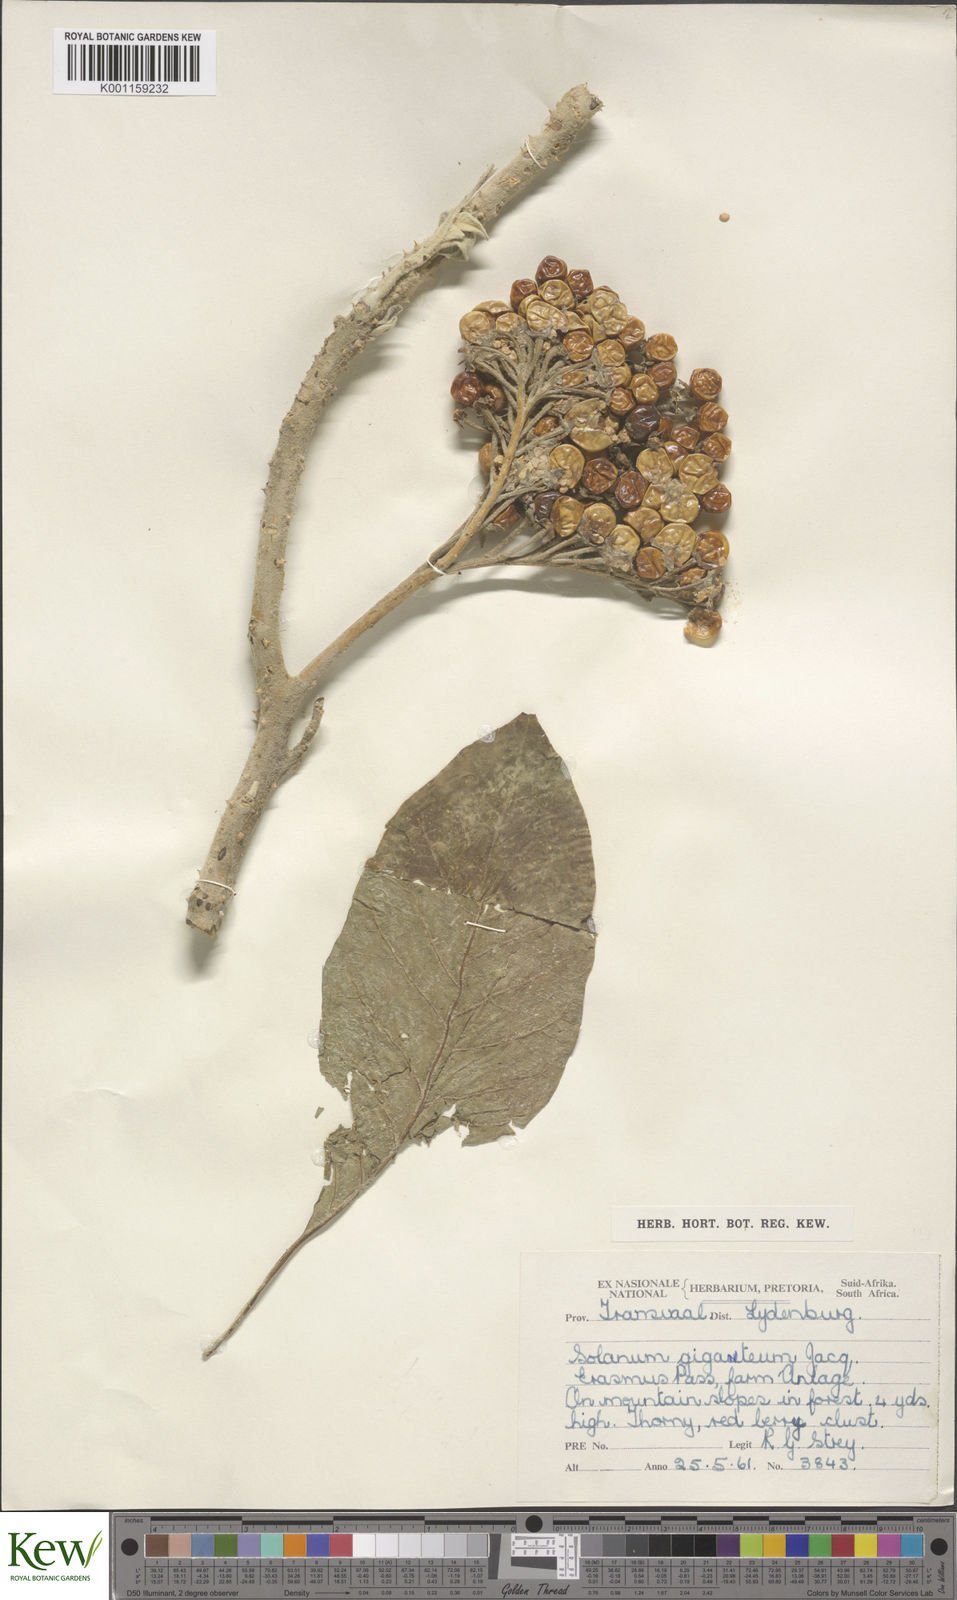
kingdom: Plantae
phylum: Tracheophyta
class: Magnoliopsida
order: Solanales
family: Solanaceae
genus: Solanum
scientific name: Solanum giganteum
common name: Healing-leaf-tree
